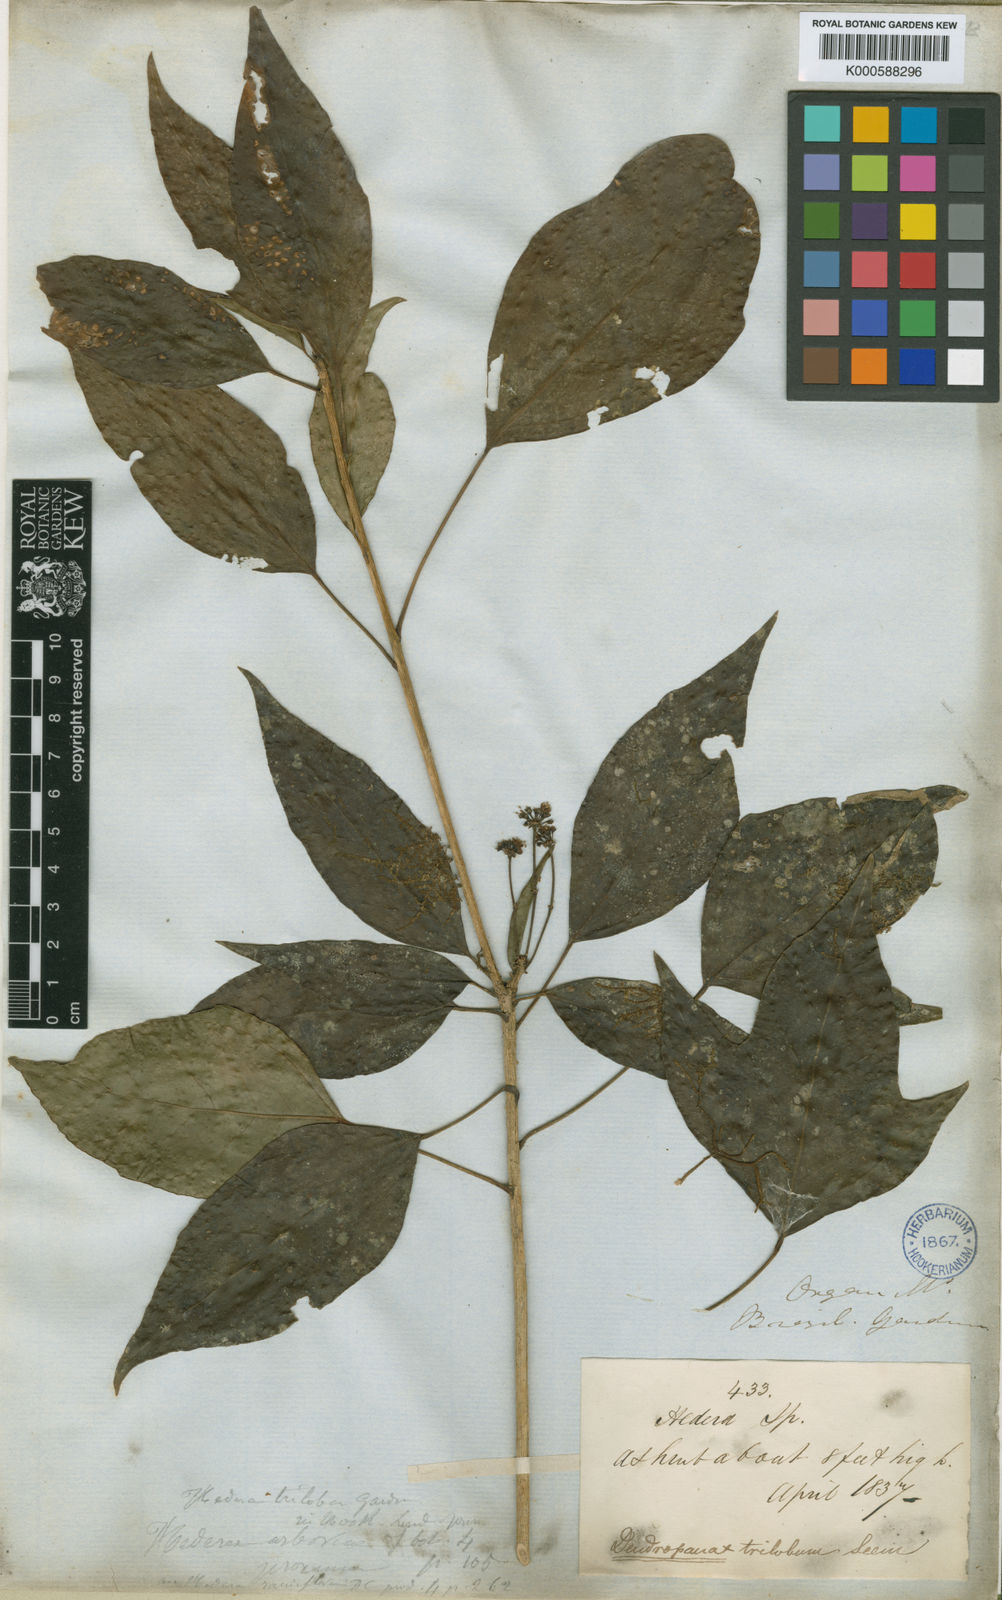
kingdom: Plantae
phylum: Tracheophyta
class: Magnoliopsida
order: Apiales
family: Araliaceae
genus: Dendropanax
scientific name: Dendropanax trilobus
